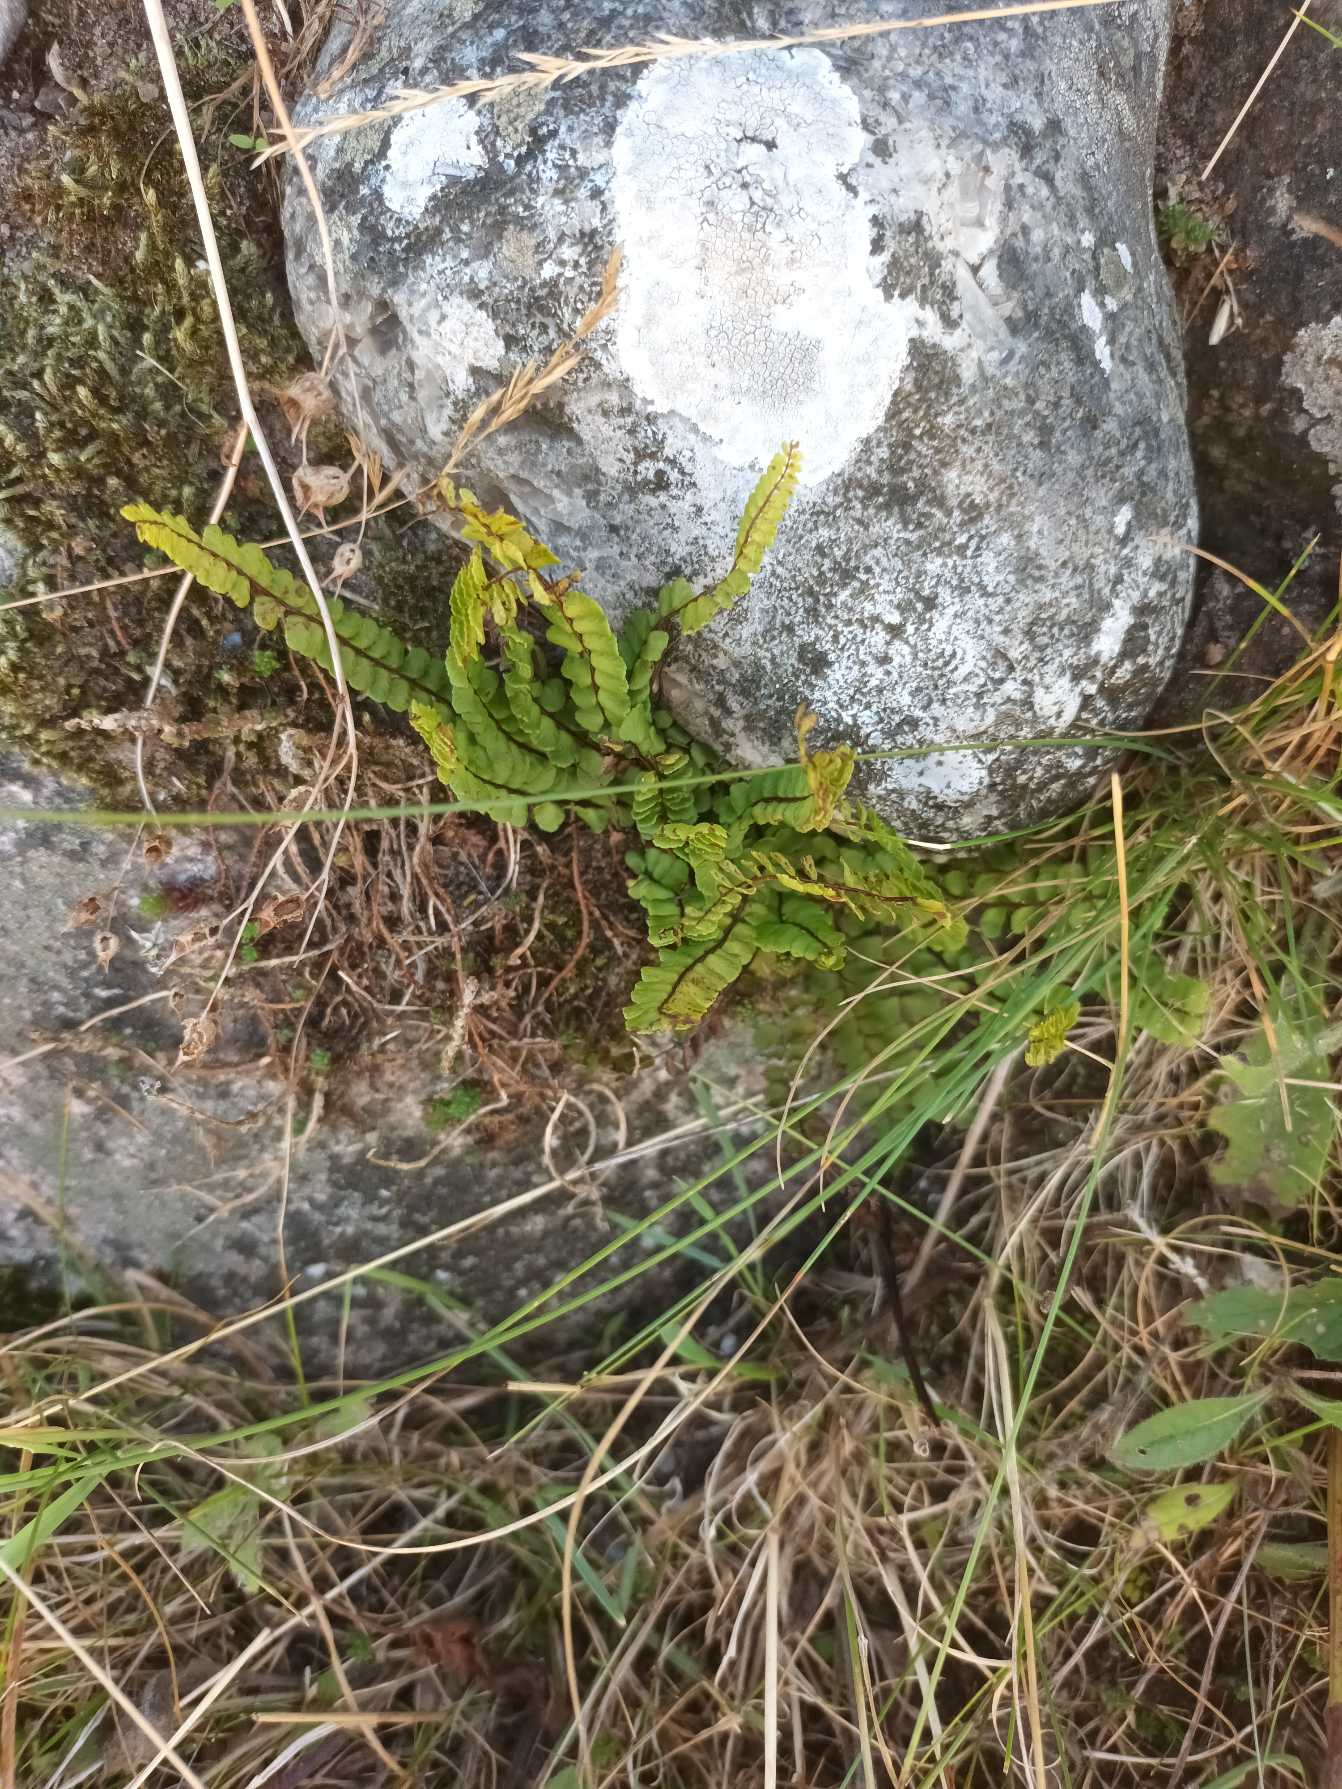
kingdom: Plantae
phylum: Tracheophyta
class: Polypodiopsida
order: Polypodiales
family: Aspleniaceae
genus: Asplenium
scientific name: Asplenium quadrivalens
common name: Kalk-radeløv
